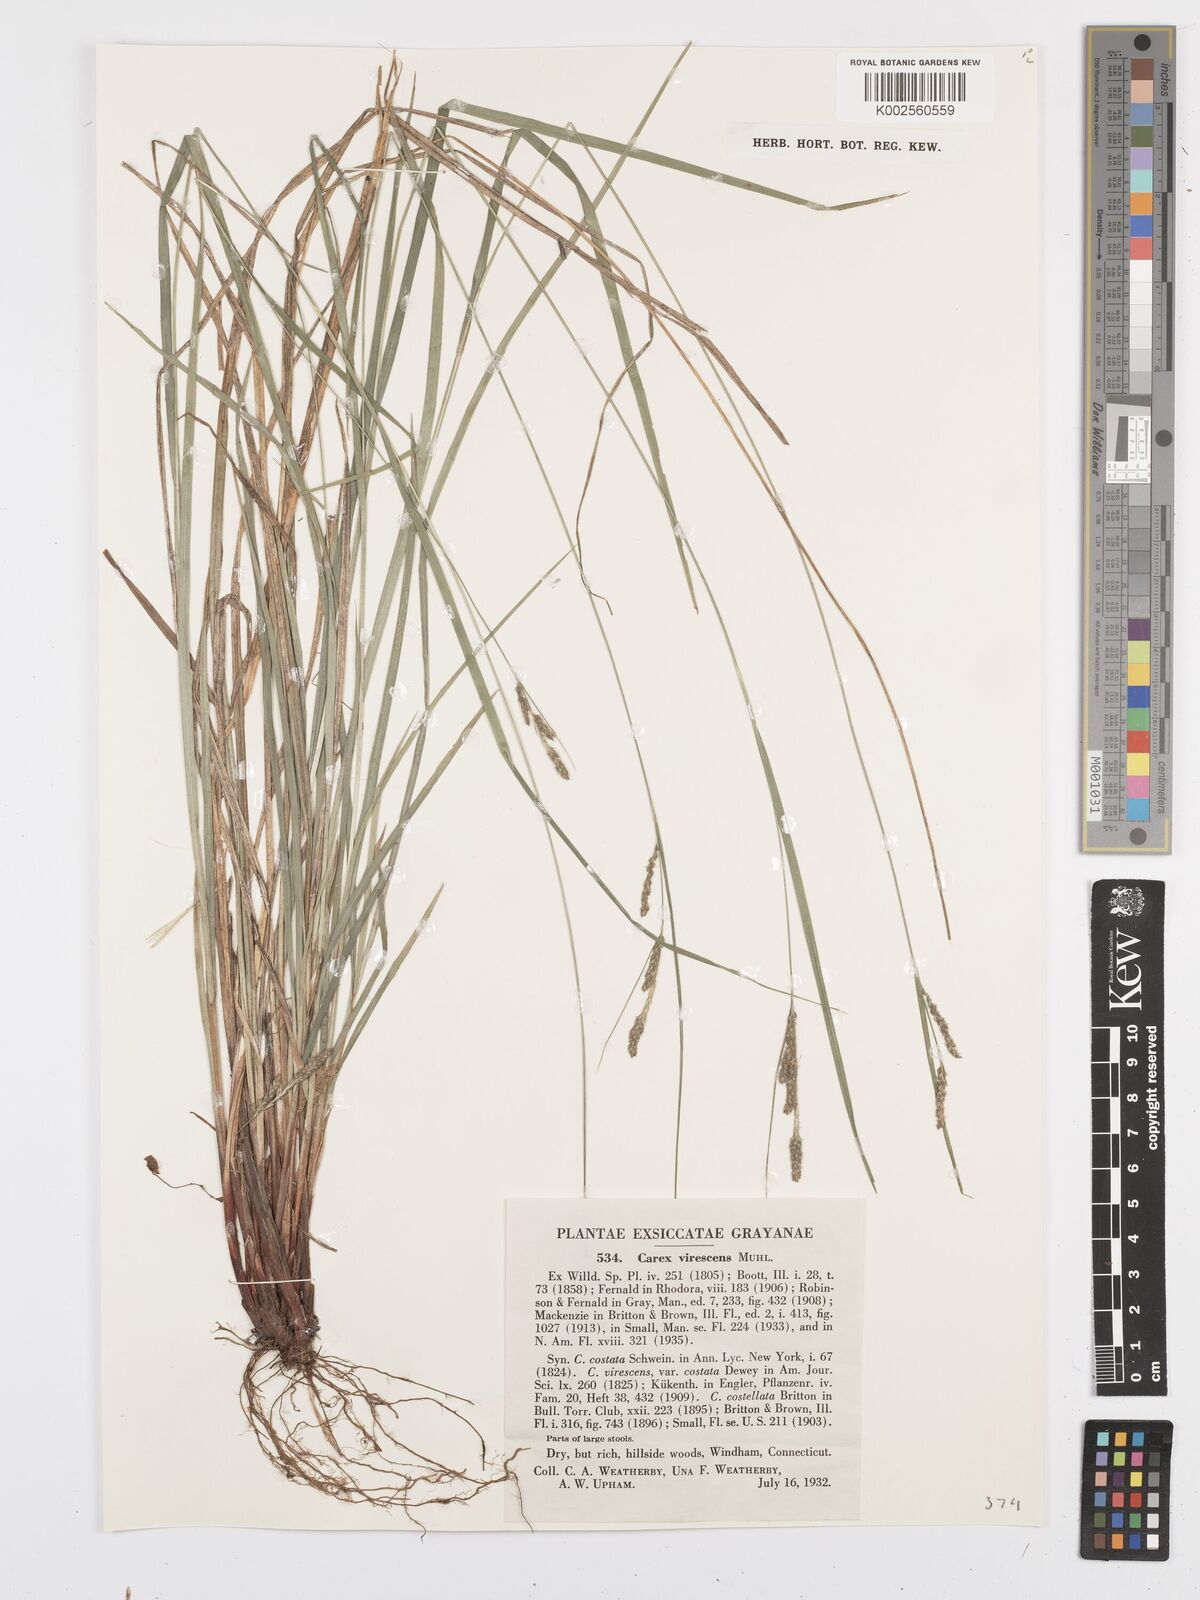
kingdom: Plantae
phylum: Tracheophyta
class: Liliopsida
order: Poales
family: Cyperaceae
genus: Carex
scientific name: Carex virescens
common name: Ribbed sedge
